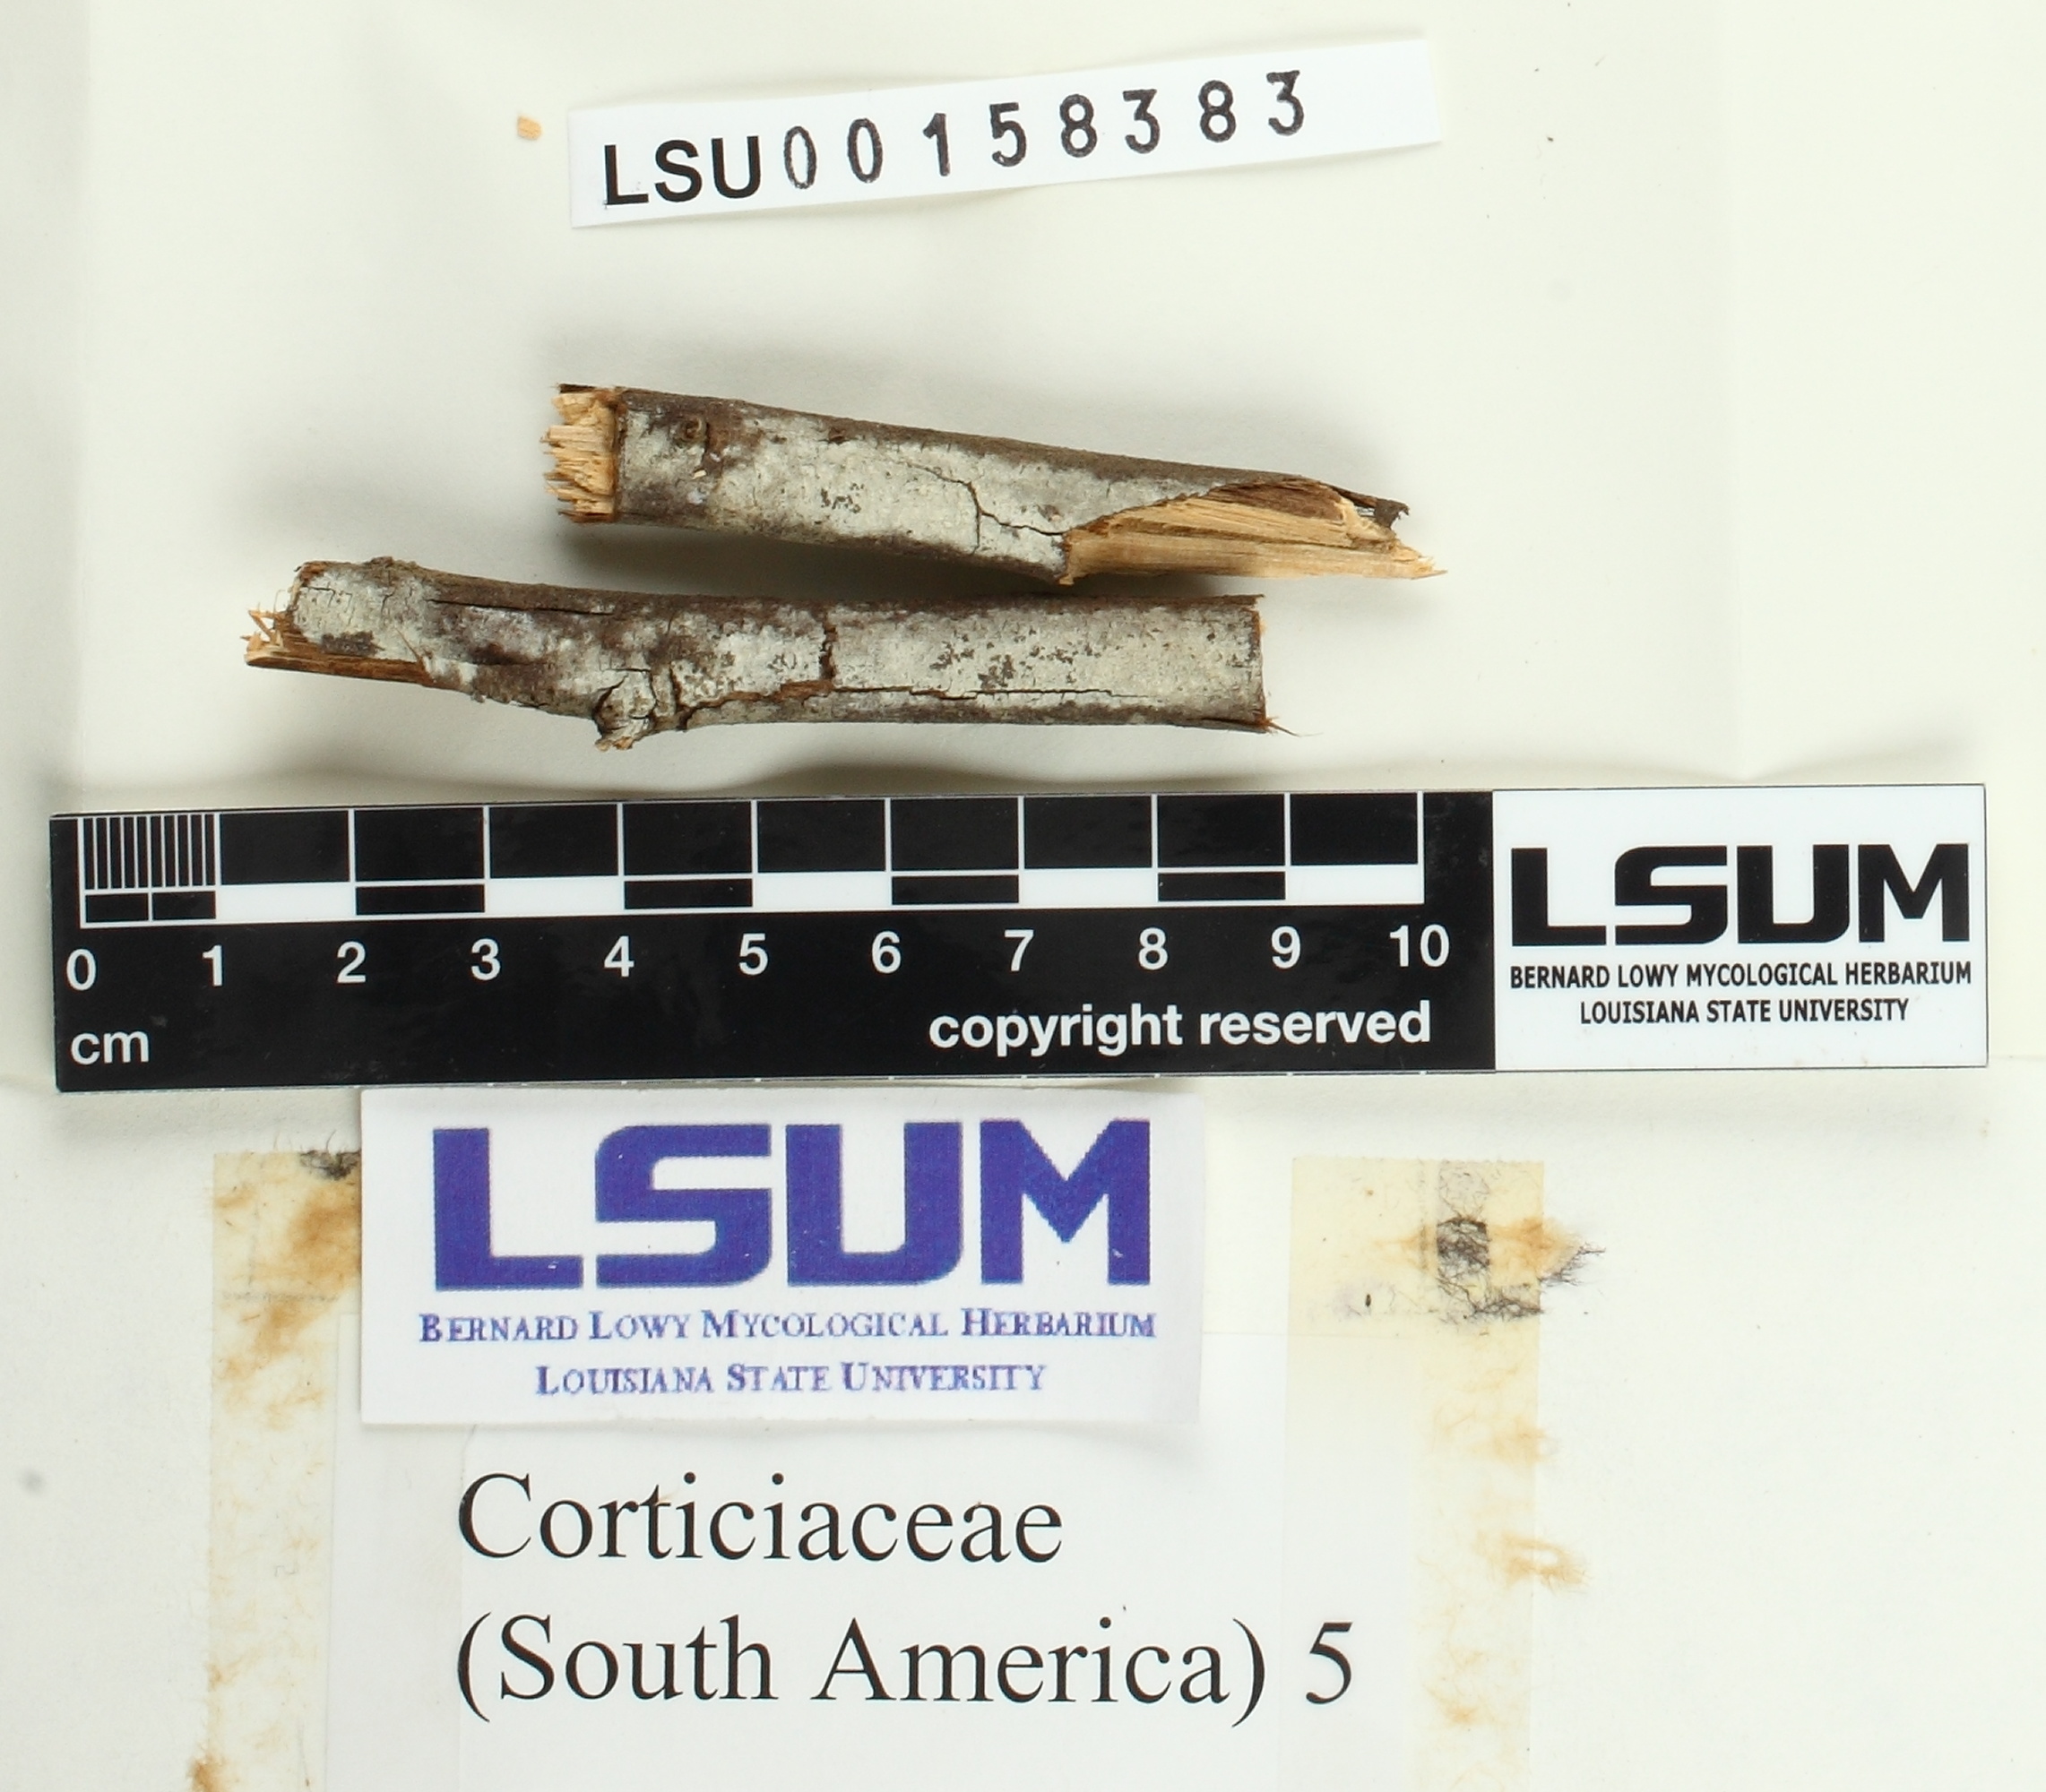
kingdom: Fungi
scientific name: Fungi
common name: Fungi
